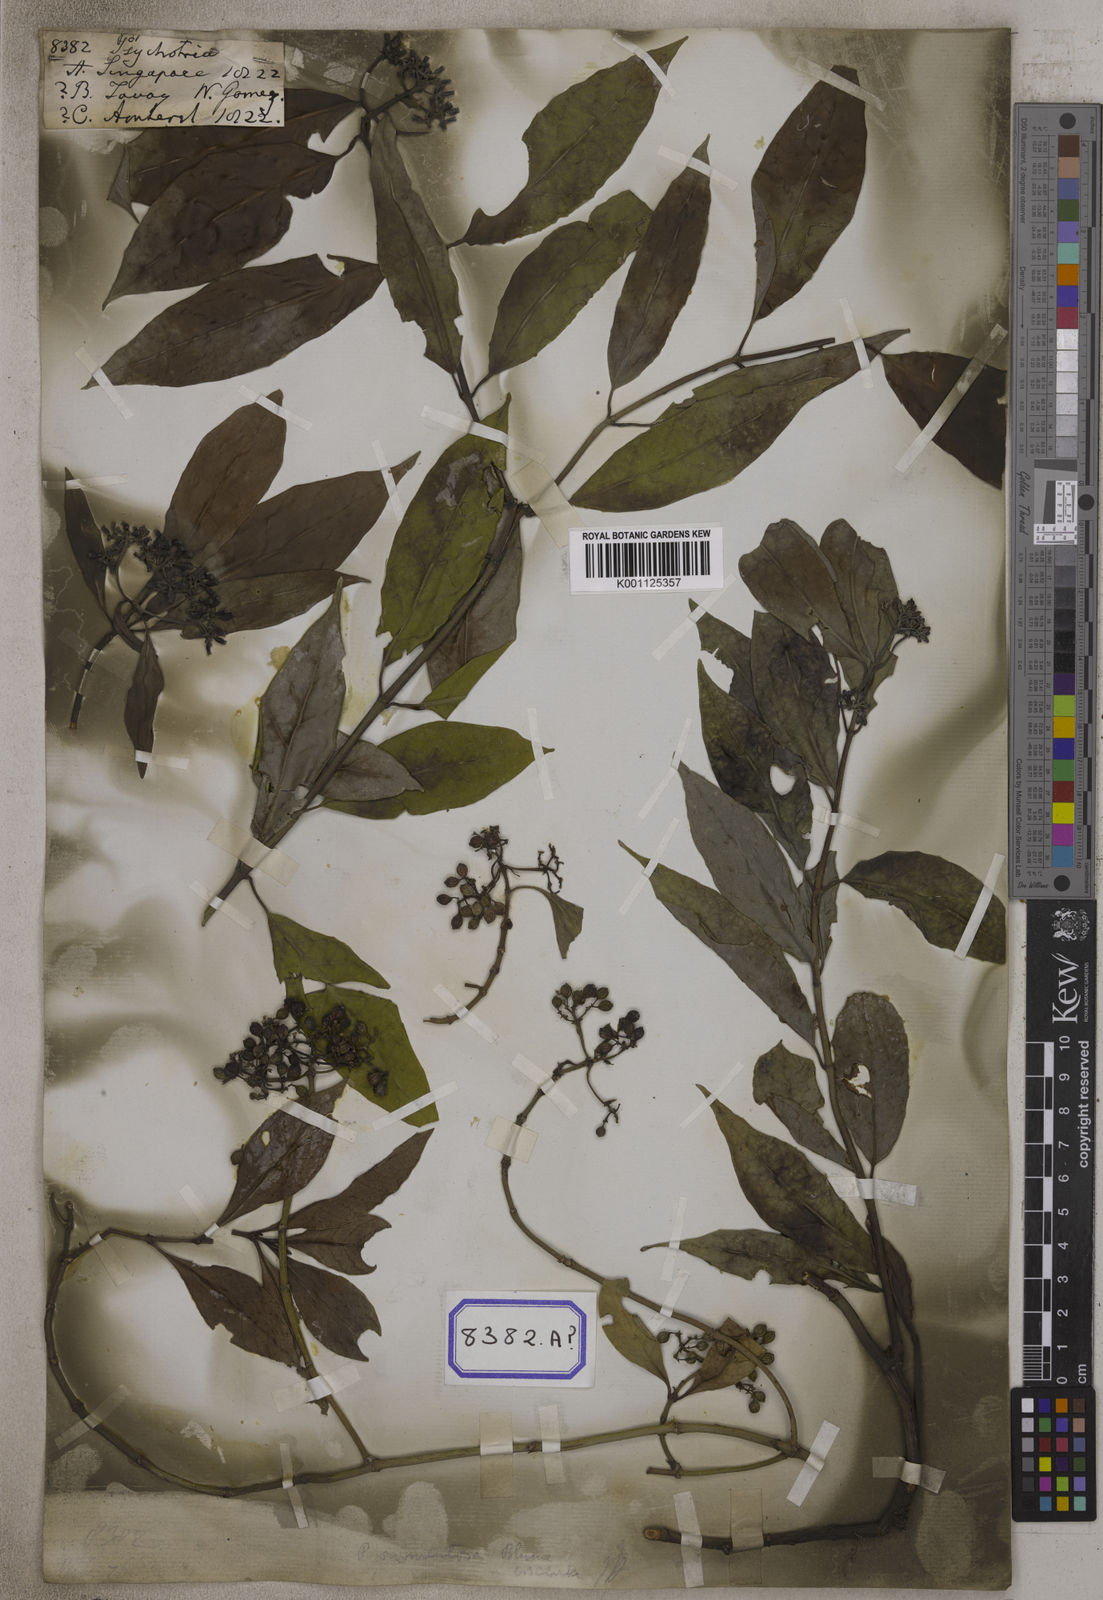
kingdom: Plantae
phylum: Tracheophyta
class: Magnoliopsida
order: Gentianales
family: Rubiaceae
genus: Psychotria
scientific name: Psychotria
